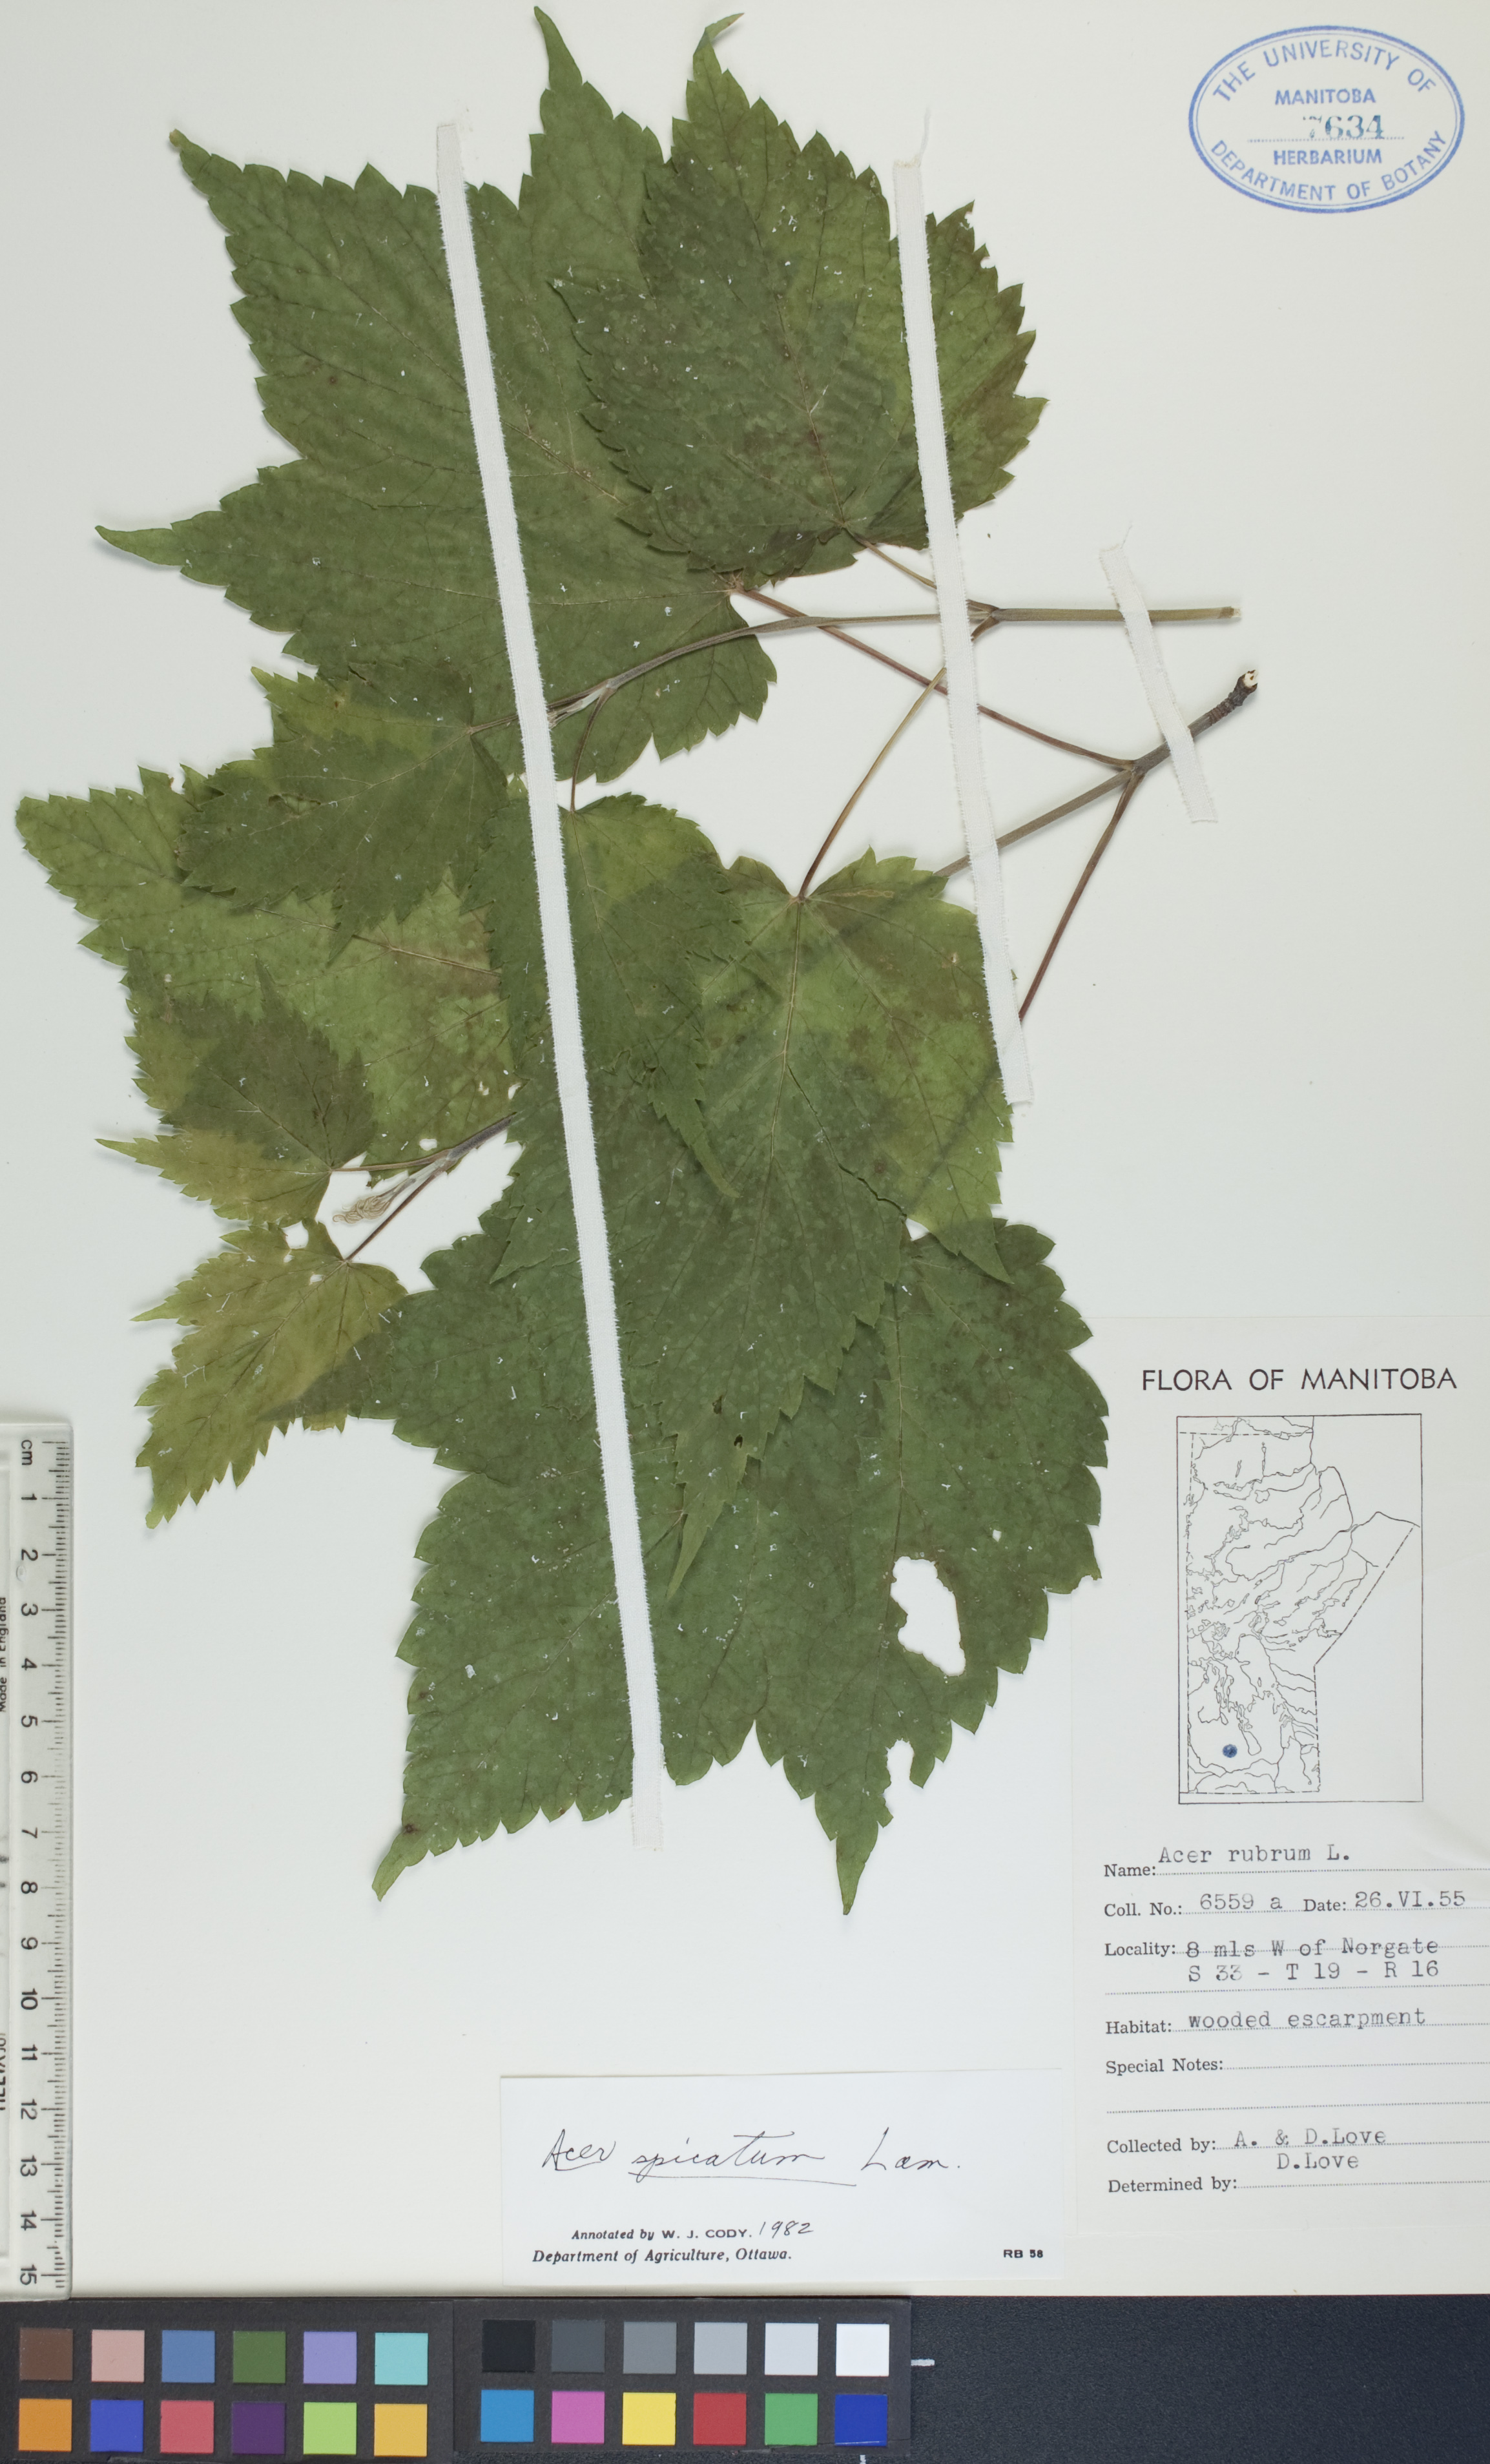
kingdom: Plantae
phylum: Tracheophyta
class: Magnoliopsida
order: Sapindales
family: Sapindaceae
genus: Acer
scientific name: Acer spicatum
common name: Mountain maple
